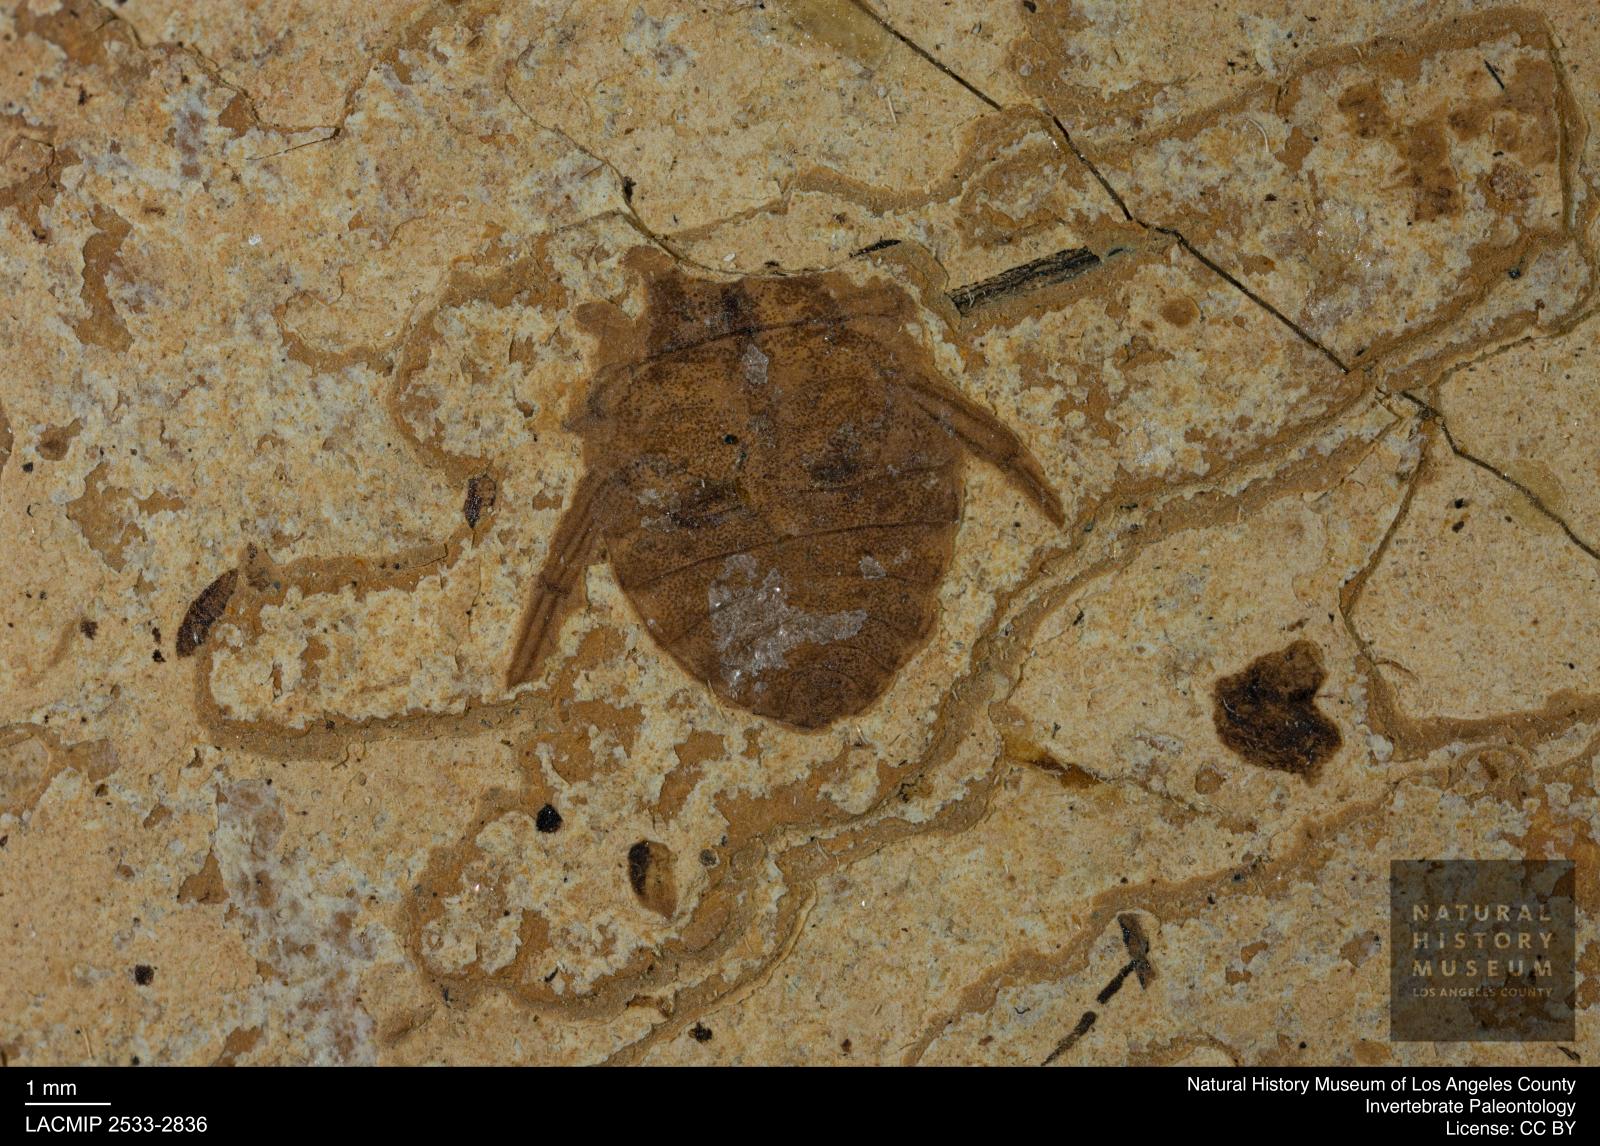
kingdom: Animalia
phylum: Arthropoda
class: Insecta
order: Hemiptera
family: Naucoridae
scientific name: Naucoridae
